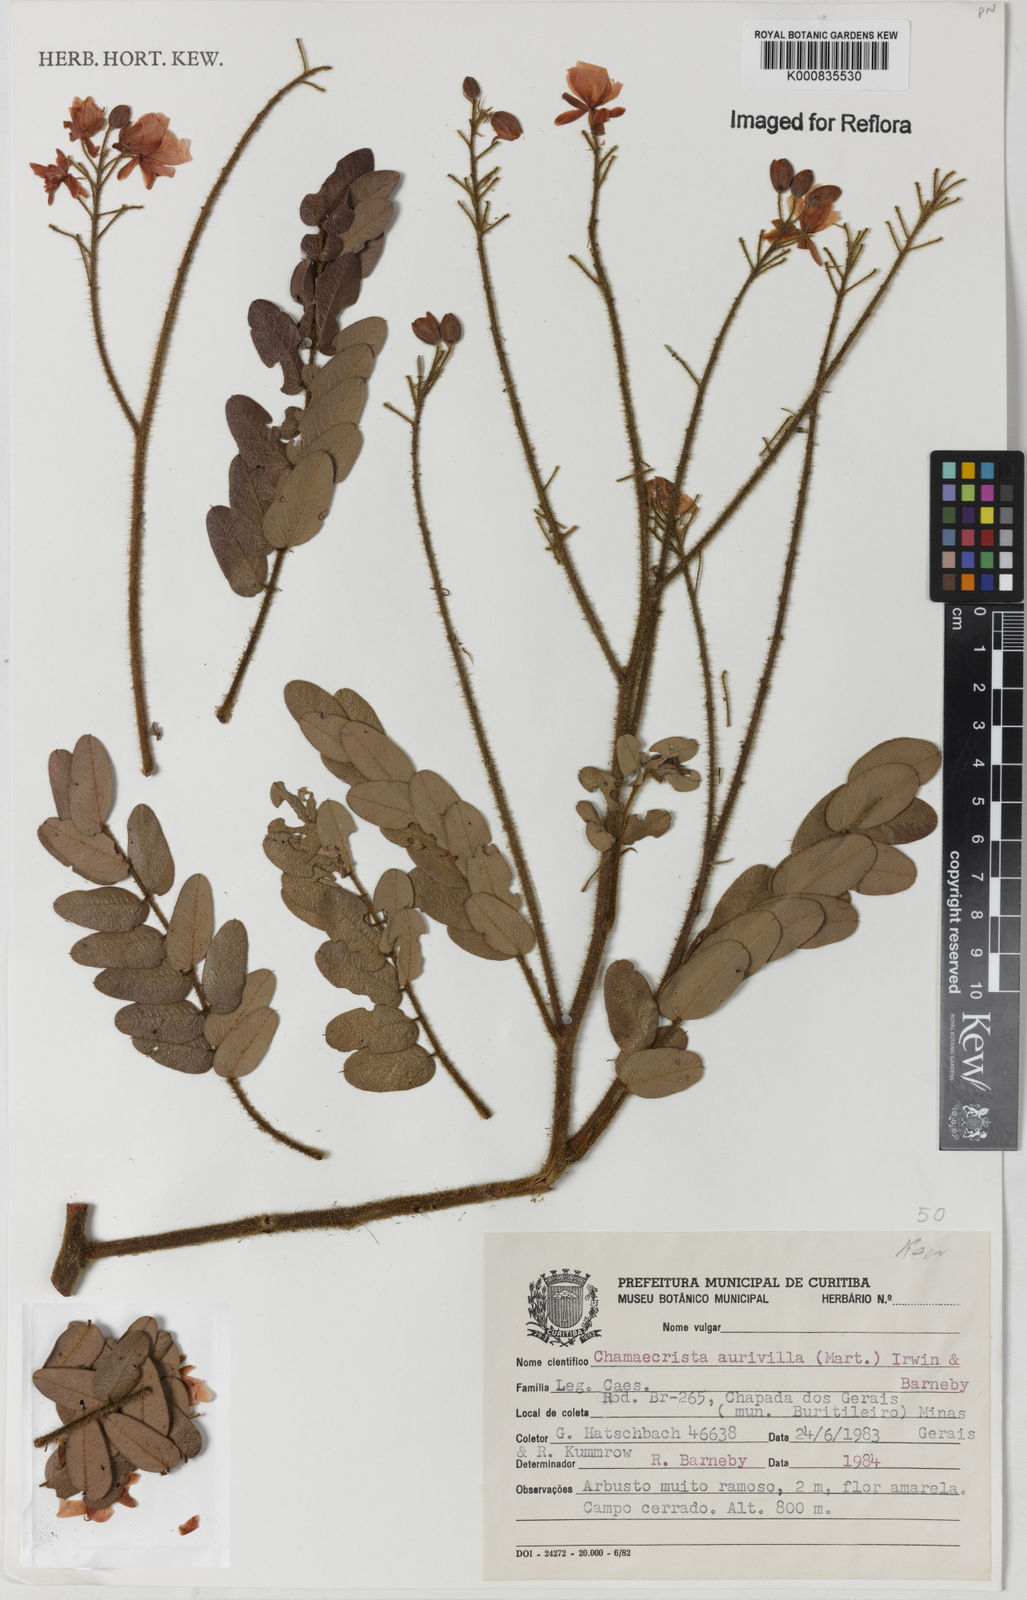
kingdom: Plantae
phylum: Tracheophyta
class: Magnoliopsida
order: Fabales
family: Fabaceae
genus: Chamaecrista
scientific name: Chamaecrista aurivilla
